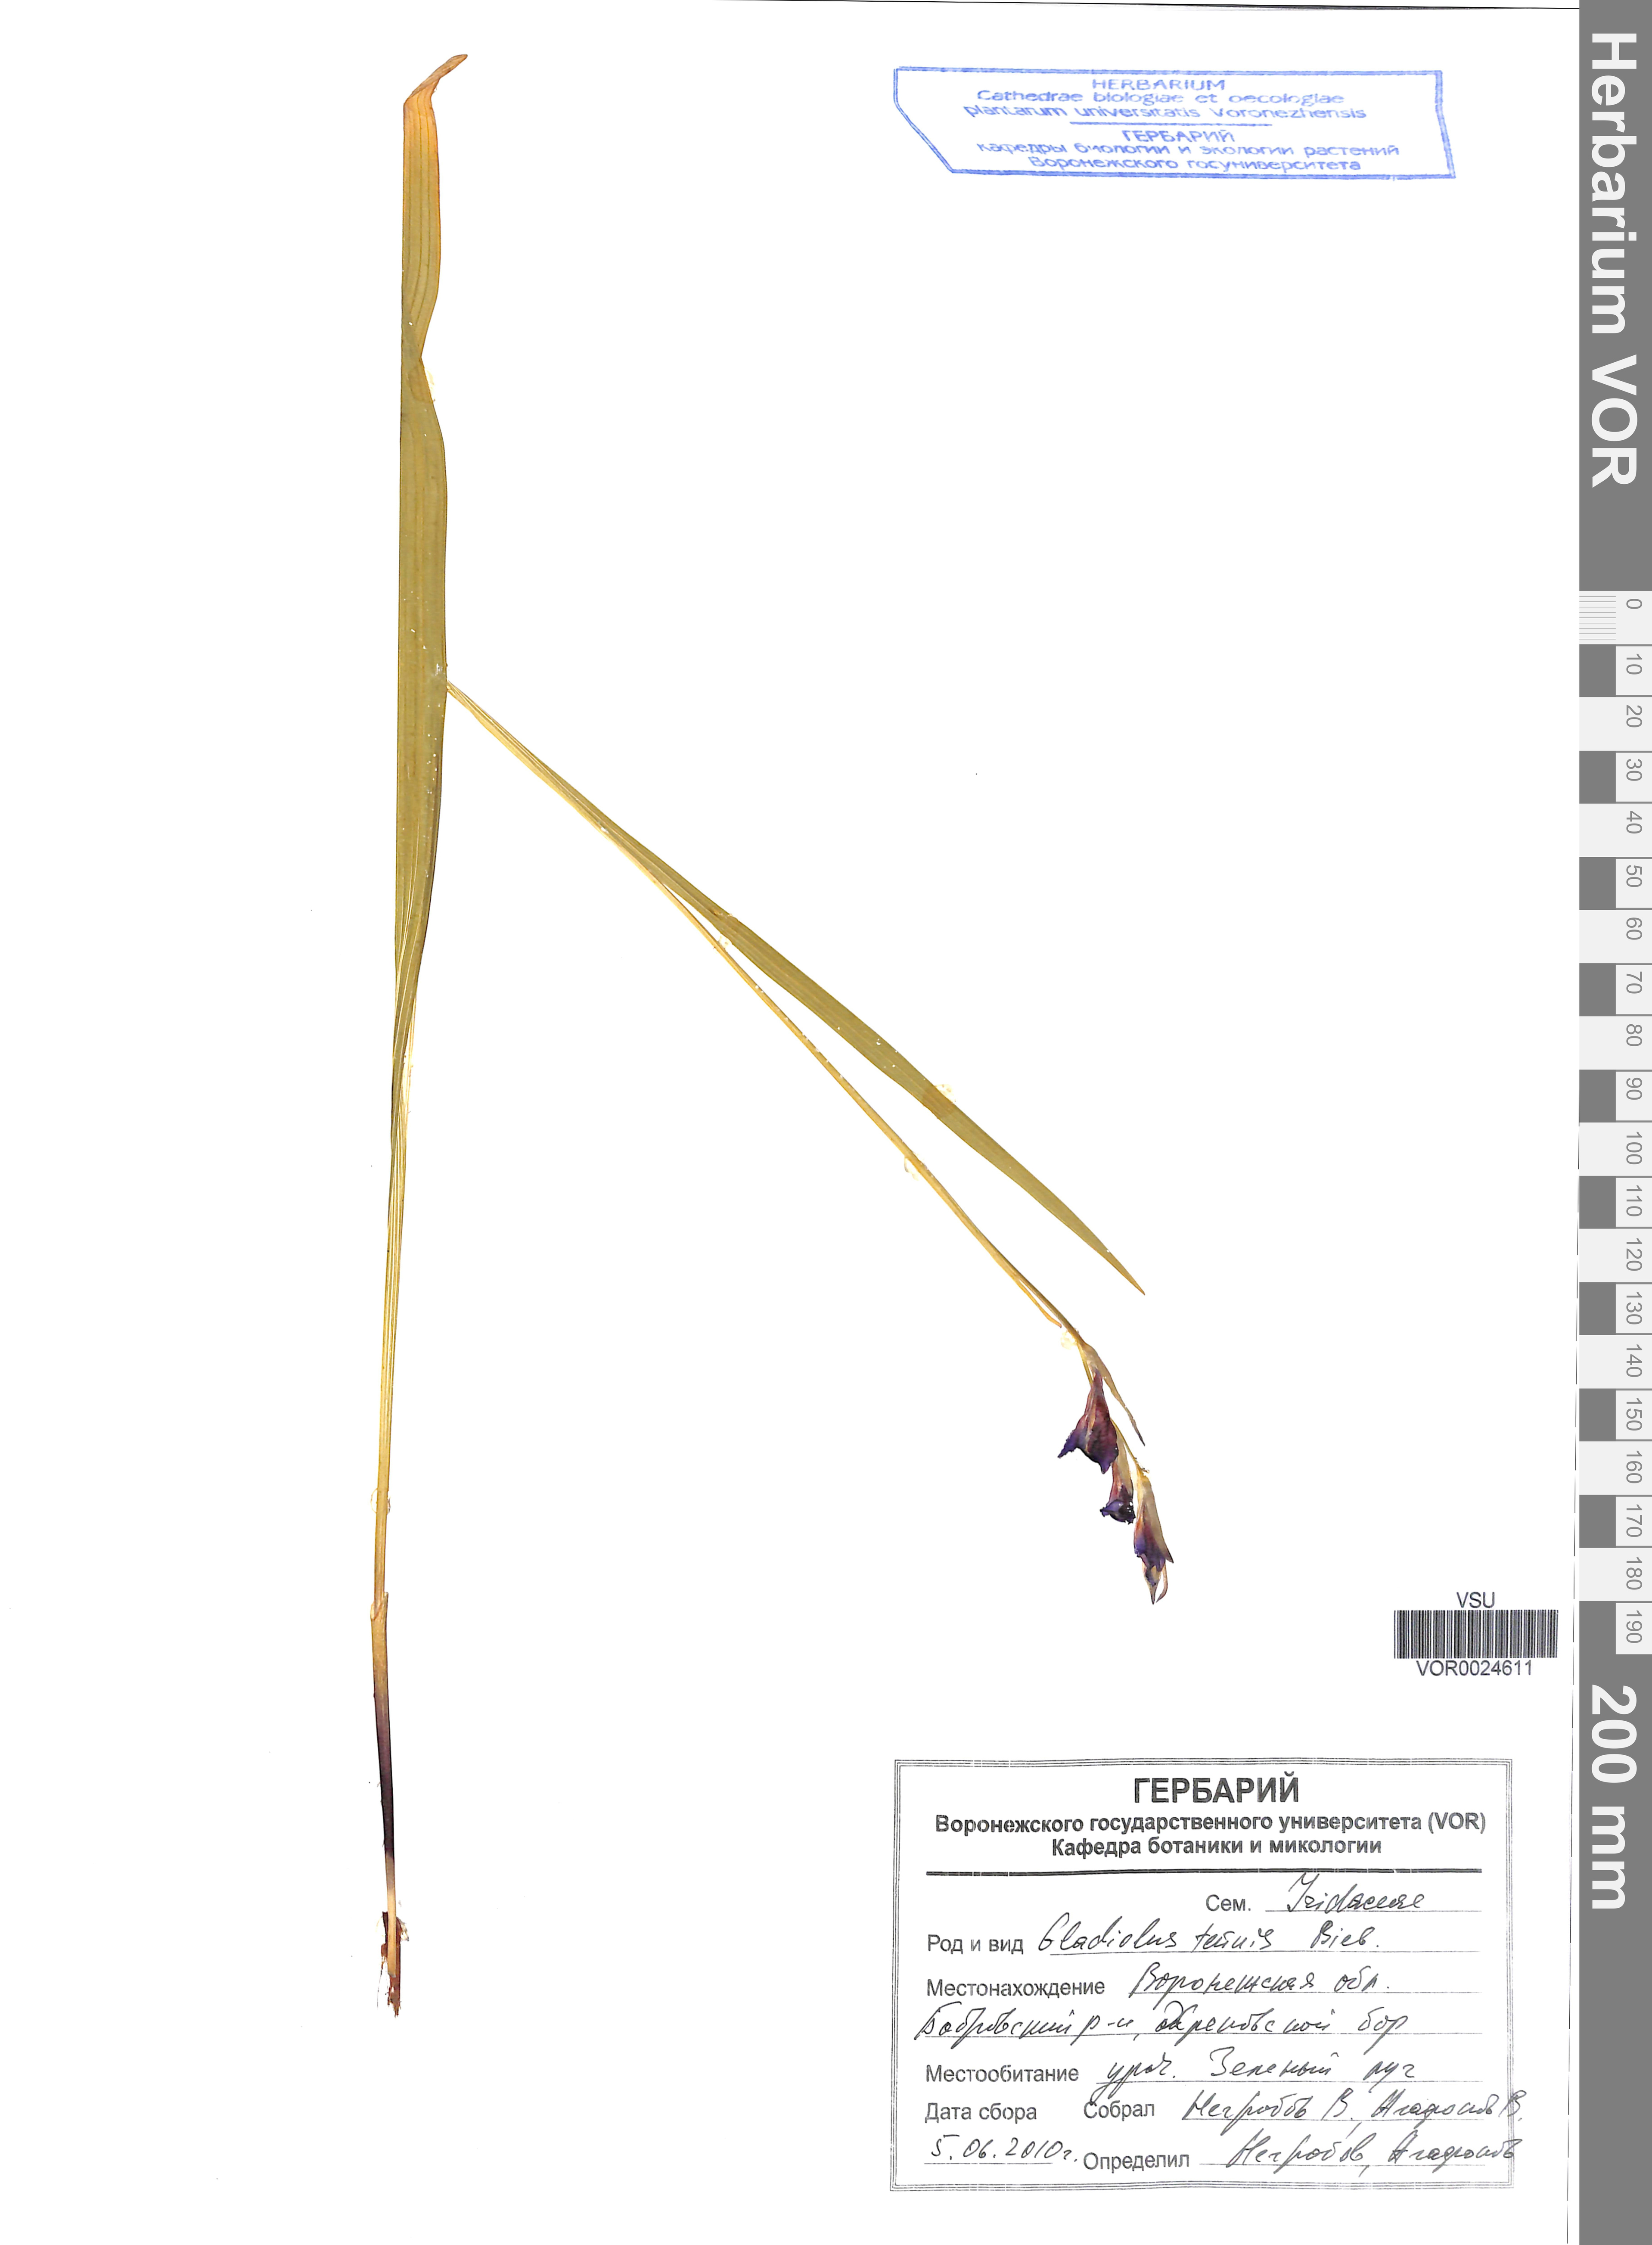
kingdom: Plantae
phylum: Tracheophyta
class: Liliopsida
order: Asparagales
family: Iridaceae
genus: Gladiolus
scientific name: Gladiolus tenuis
